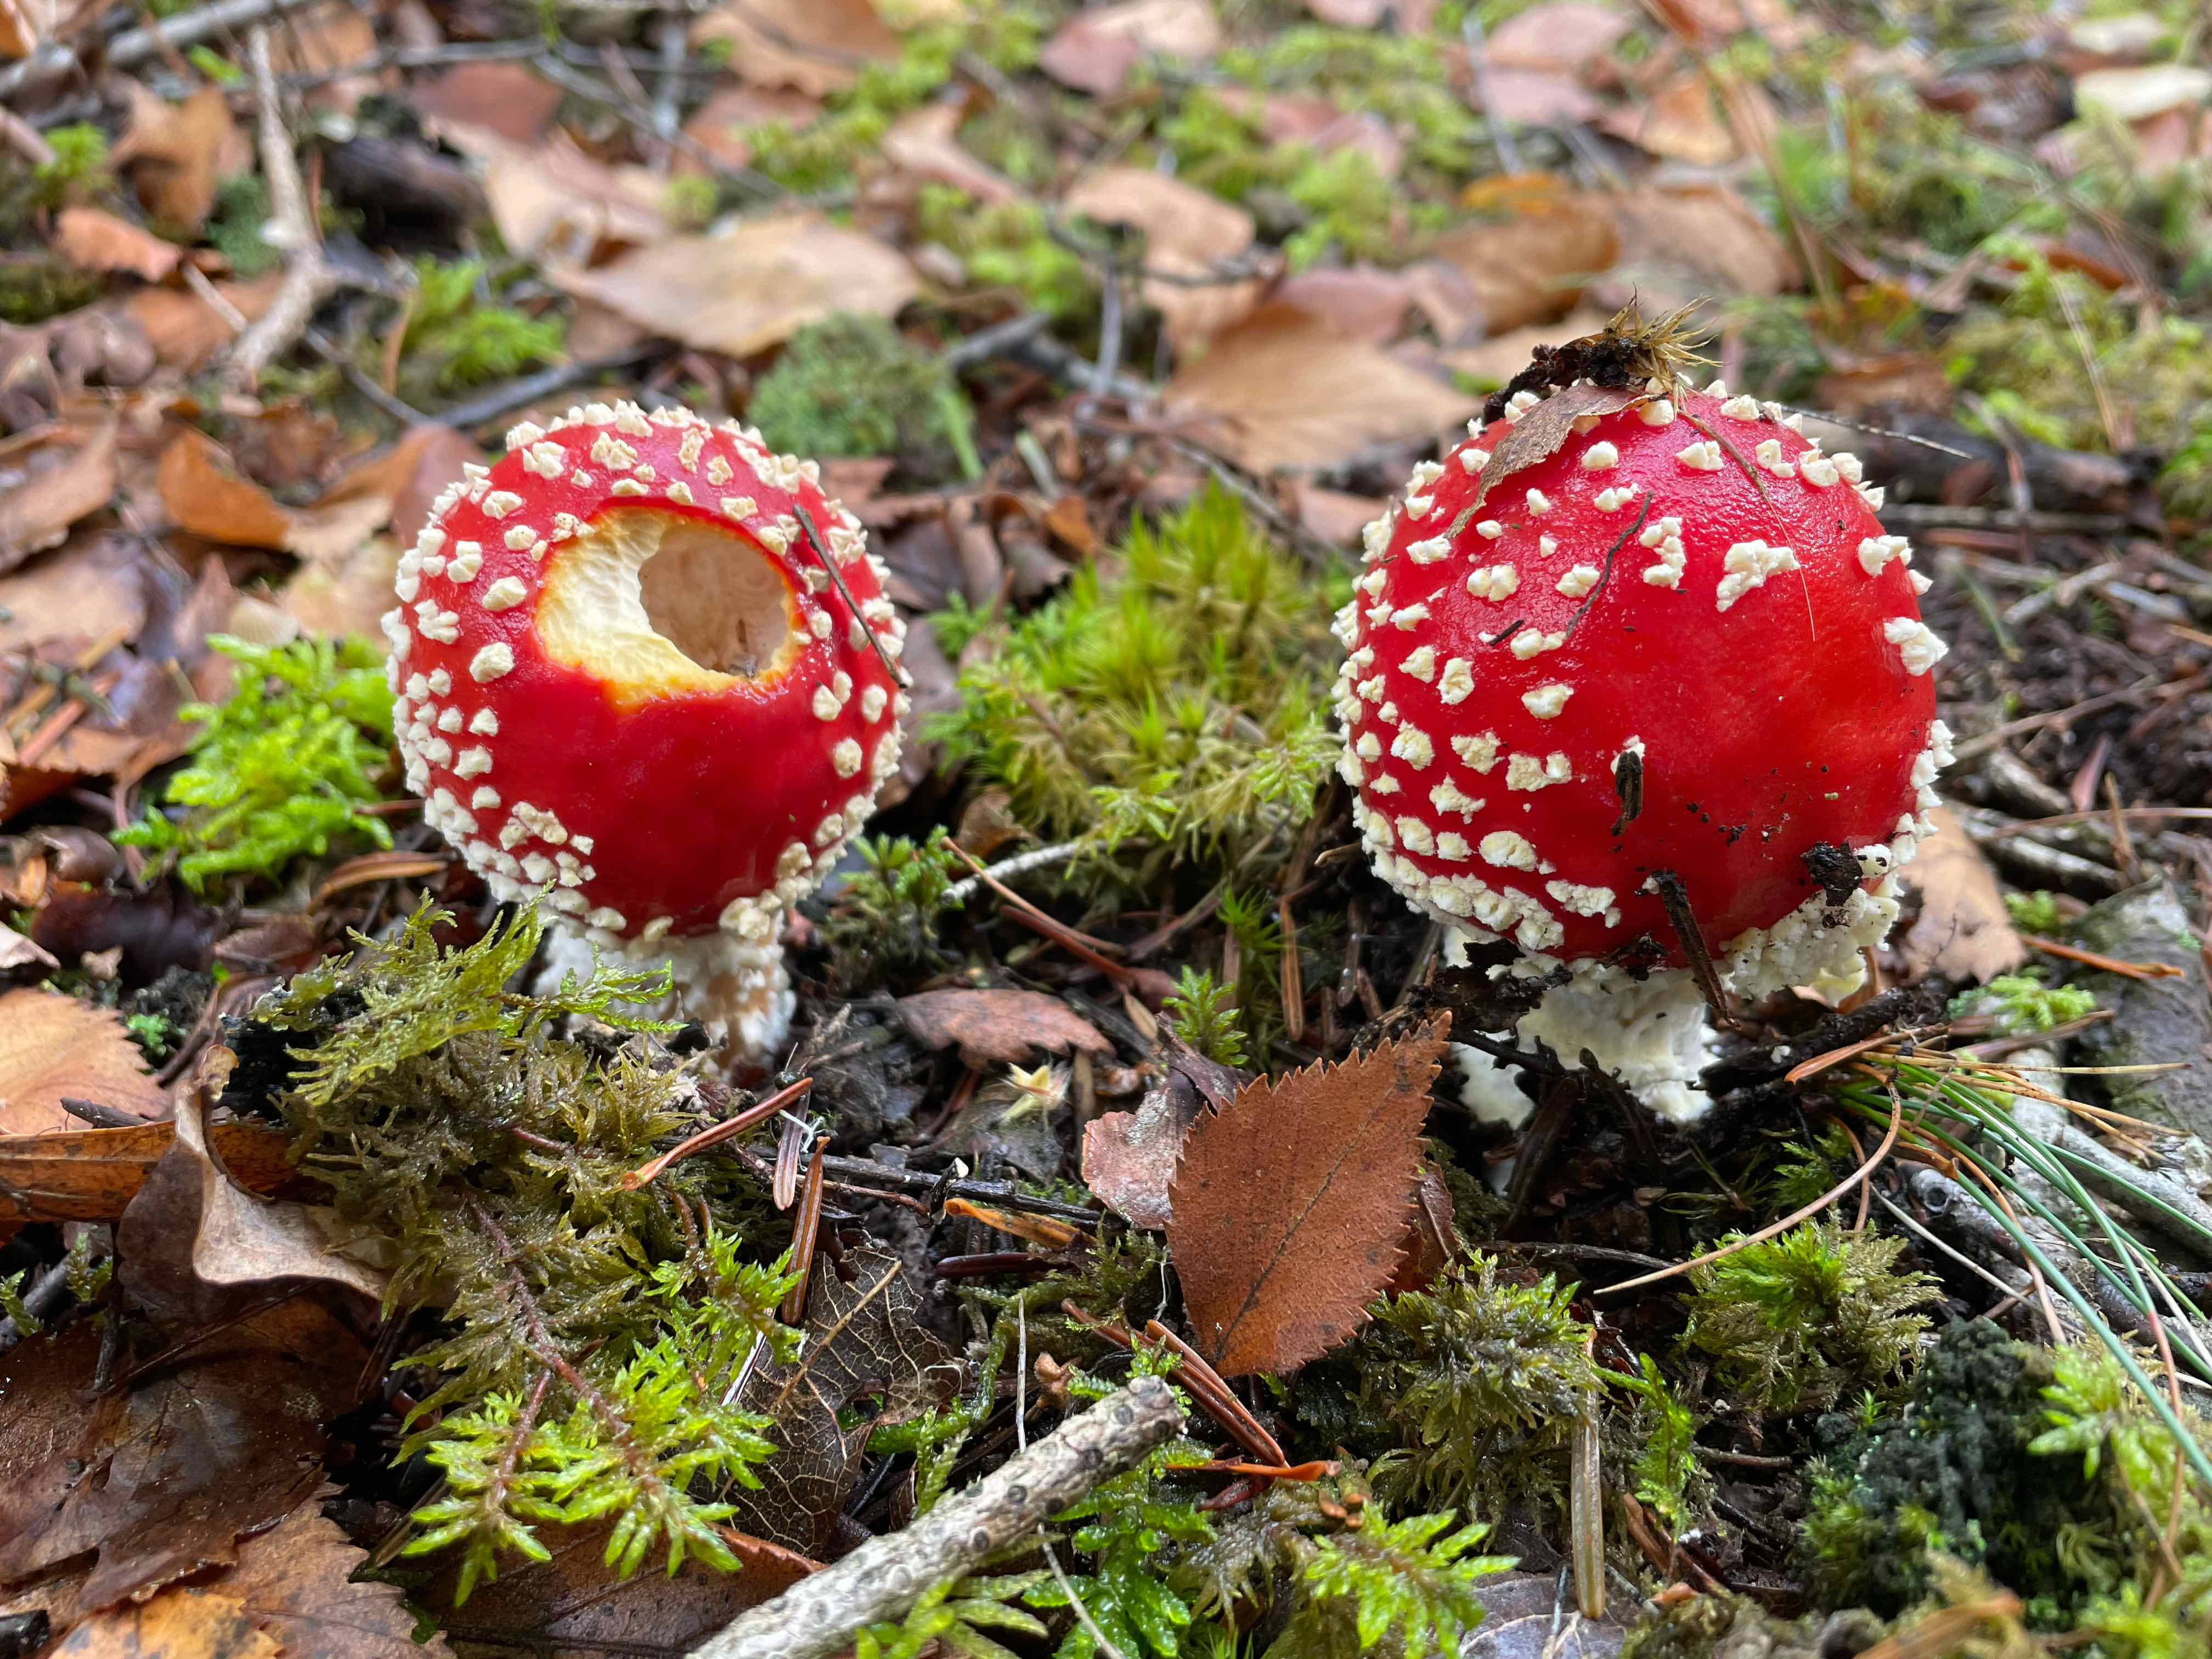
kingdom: Fungi
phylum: Basidiomycota
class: Agaricomycetes
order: Agaricales
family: Amanitaceae
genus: Amanita
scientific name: Amanita muscaria
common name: rød fluesvamp
